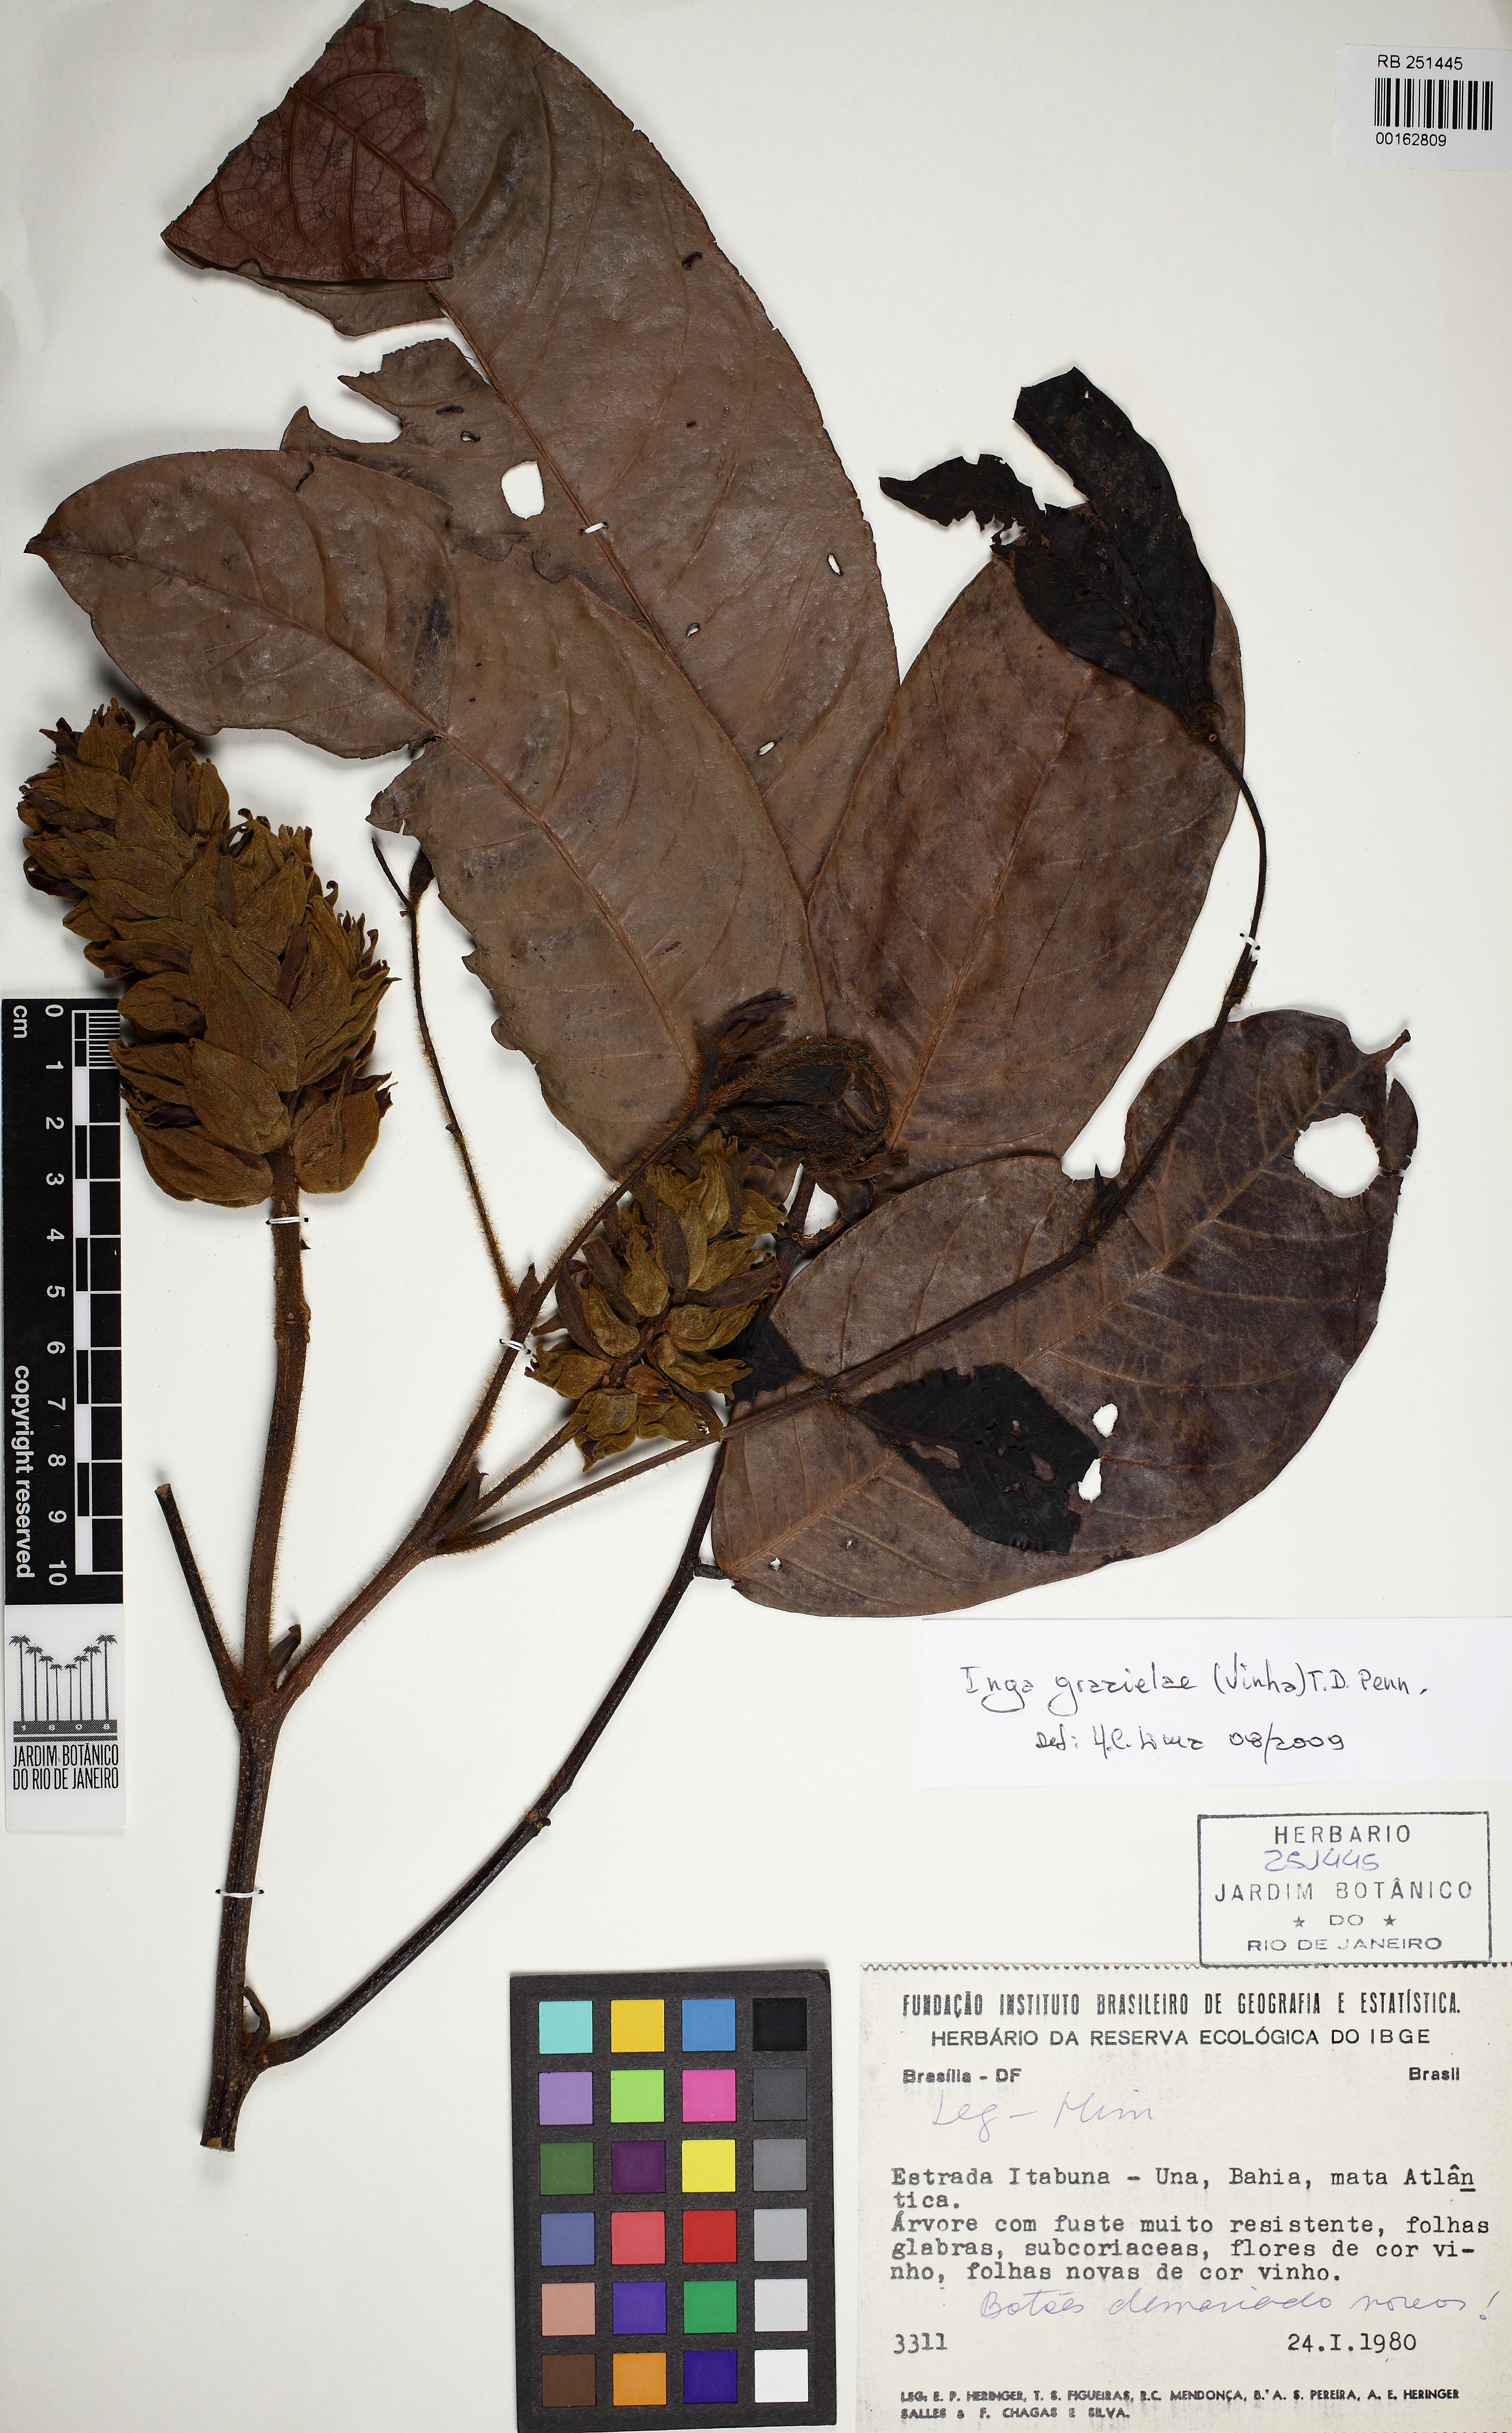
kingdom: Plantae
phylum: Tracheophyta
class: Magnoliopsida
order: Fabales
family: Fabaceae
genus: Inga
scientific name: Inga grazielae
